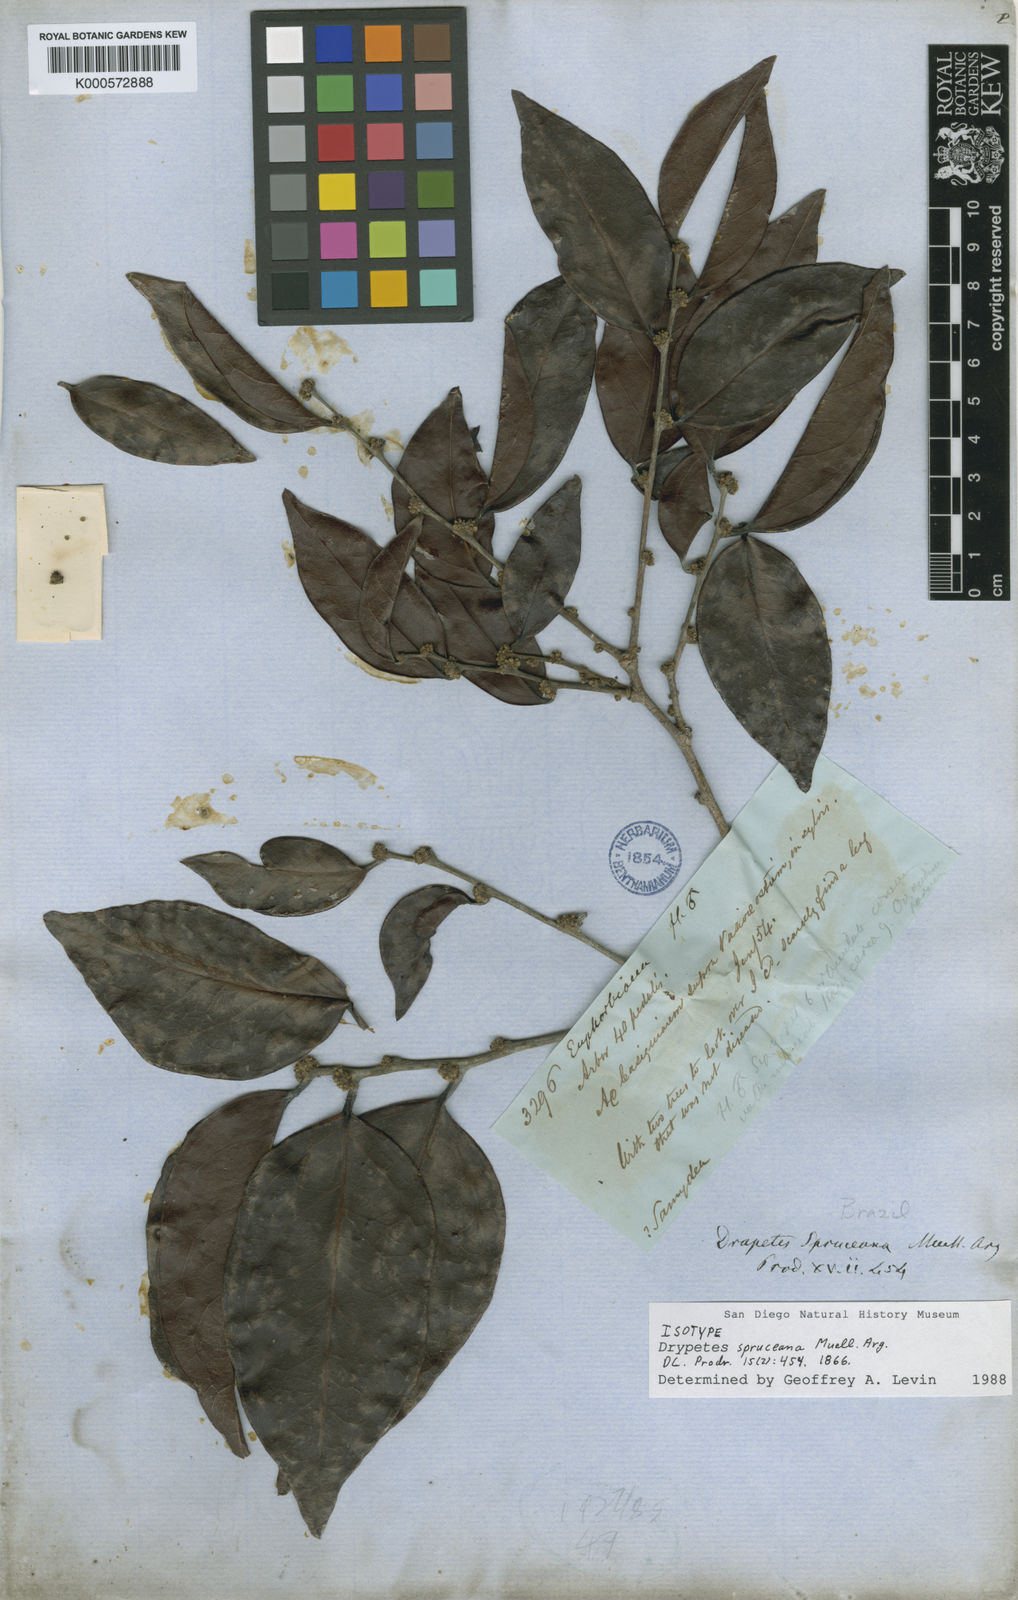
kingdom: Plantae
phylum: Tracheophyta
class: Magnoliopsida
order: Malpighiales
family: Peraceae
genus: Chaetocarpus
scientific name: Chaetocarpus schomburgkianus
